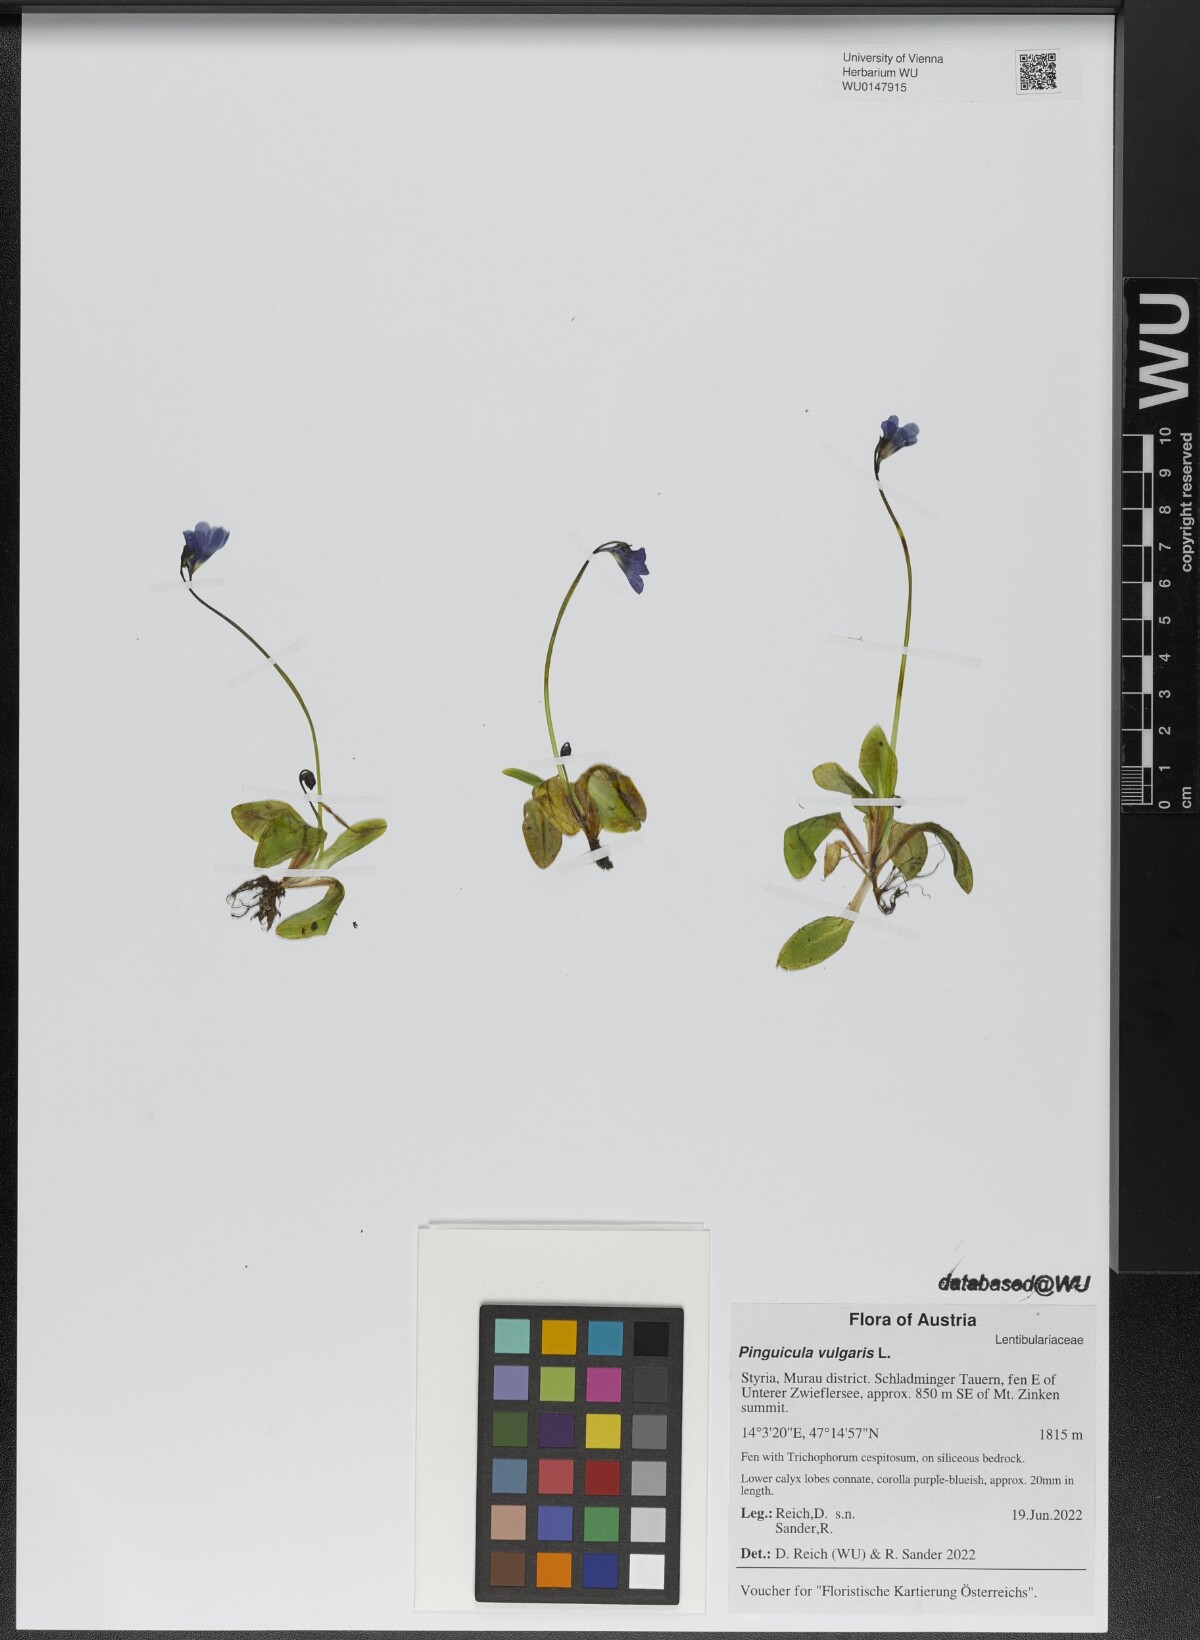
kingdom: Plantae
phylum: Tracheophyta
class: Magnoliopsida
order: Lamiales
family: Lentibulariaceae
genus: Pinguicula
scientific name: Pinguicula vulgaris
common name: Common butterwort
